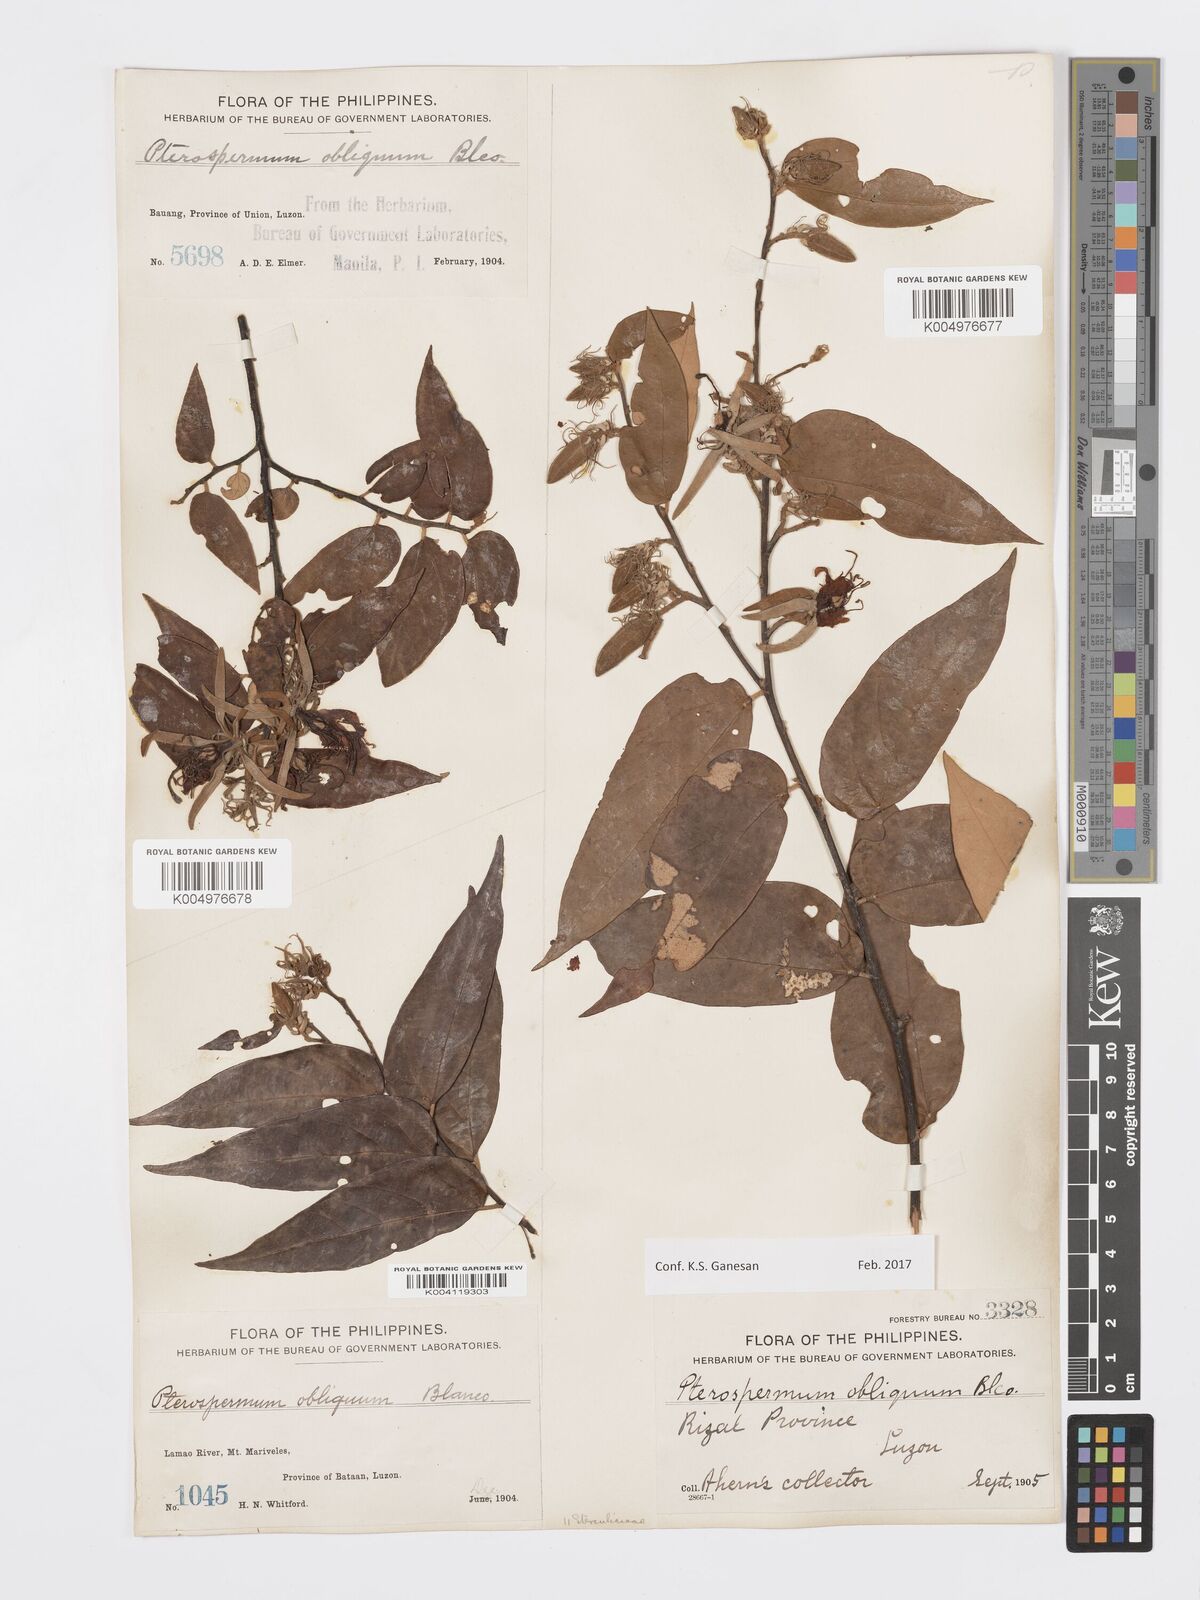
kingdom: Plantae
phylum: Tracheophyta
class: Magnoliopsida
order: Malvales
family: Malvaceae
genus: Pterospermum
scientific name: Pterospermum obliquum
